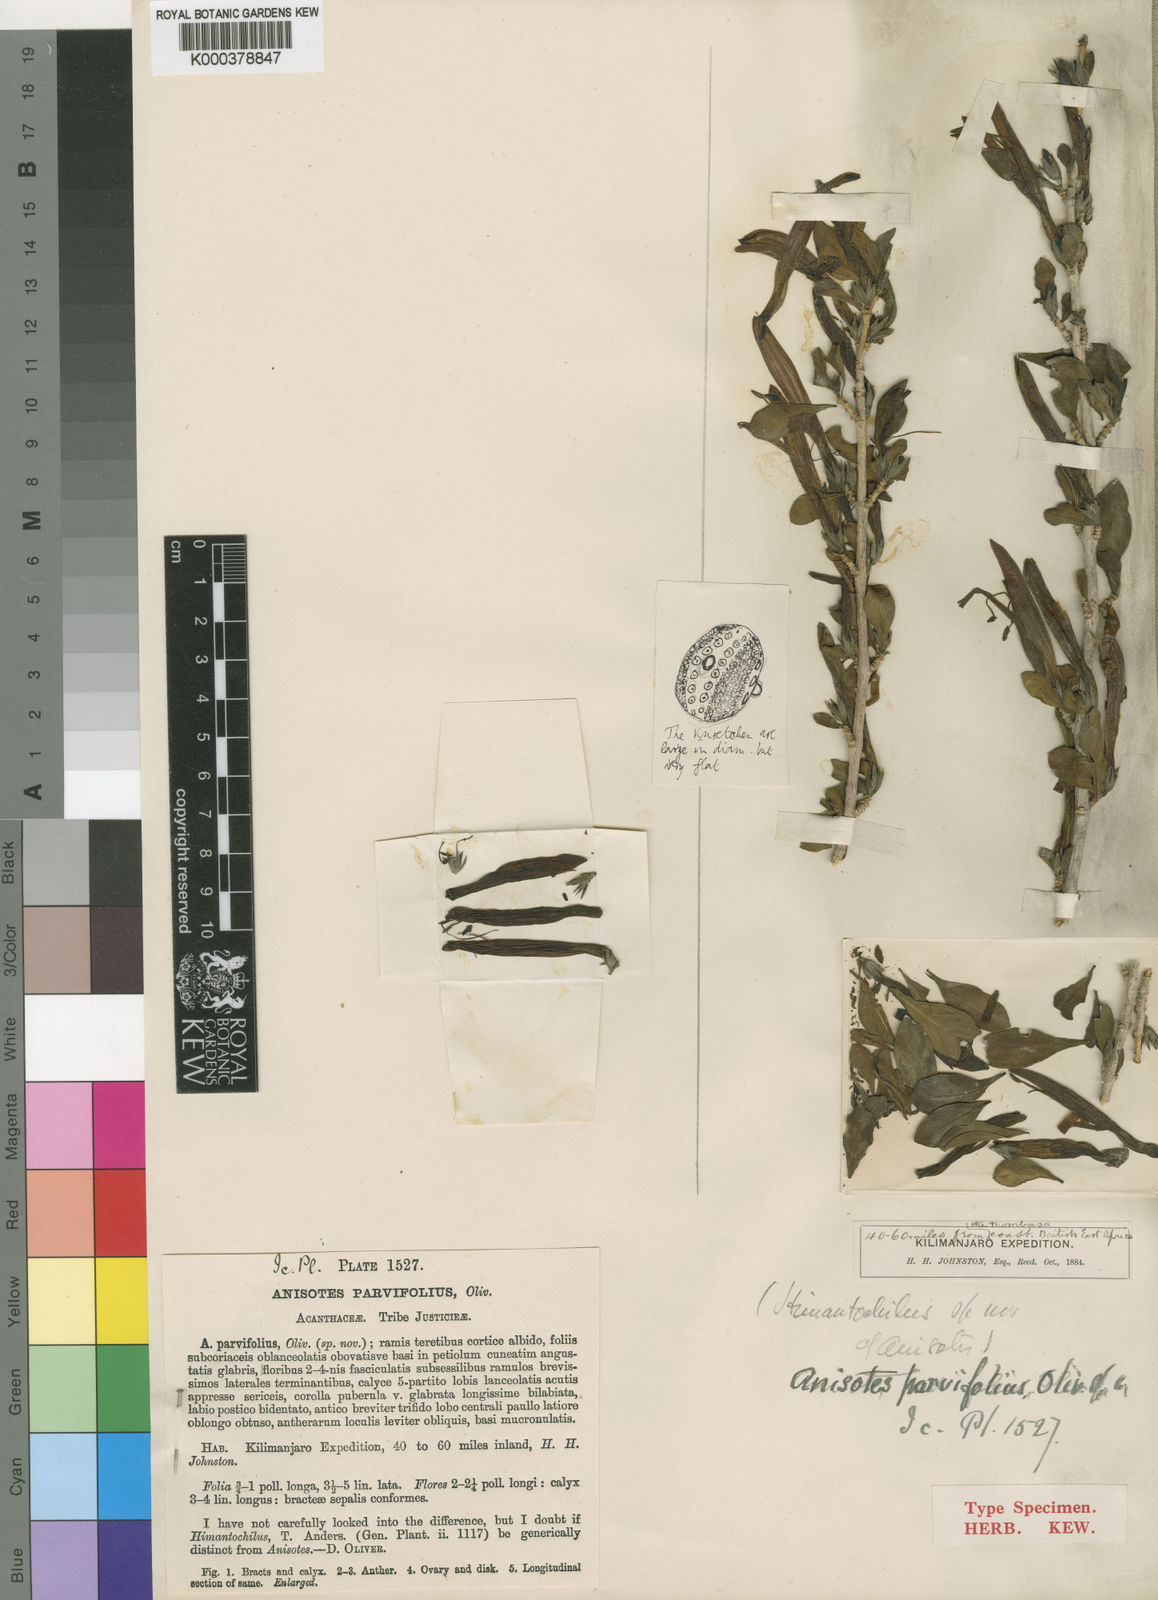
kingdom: Plantae
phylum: Tracheophyta
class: Magnoliopsida
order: Lamiales
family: Acanthaceae
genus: Anisotes
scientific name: Anisotes parvifolius
